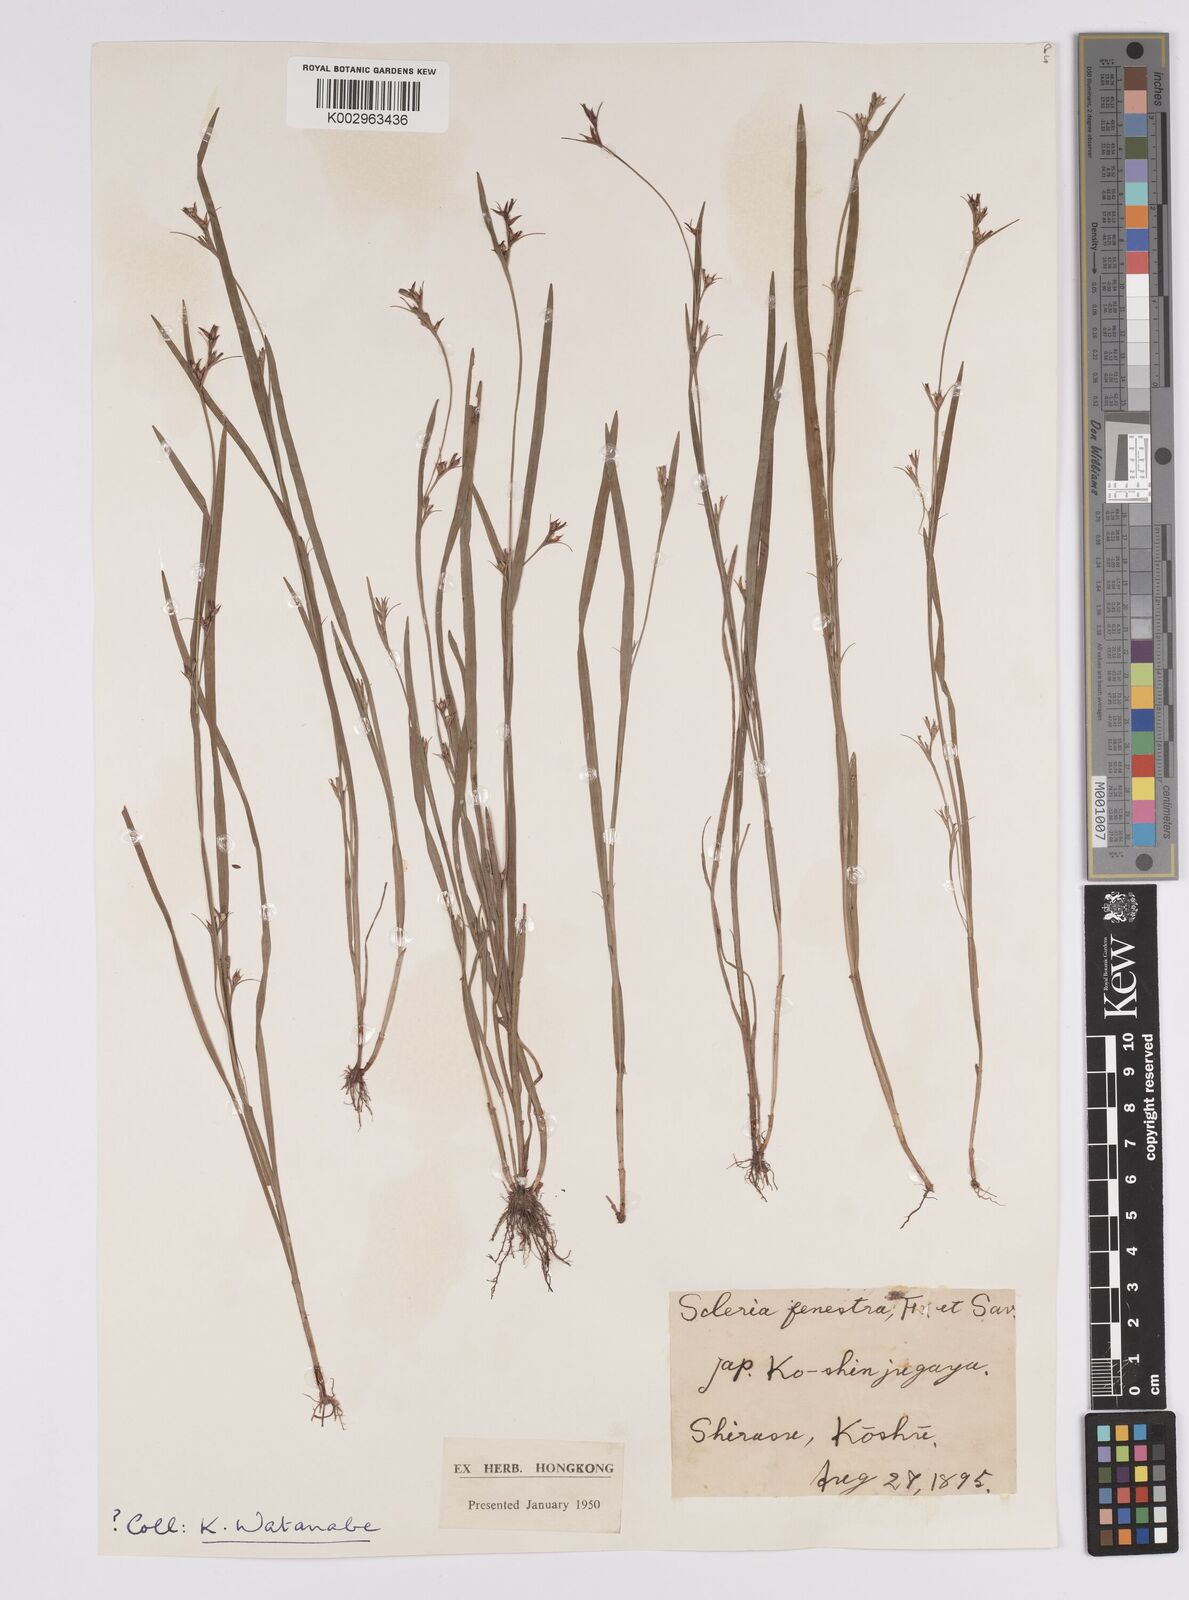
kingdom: Plantae
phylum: Tracheophyta
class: Liliopsida
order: Poales
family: Cyperaceae
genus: Scleria
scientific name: Scleria parvula
